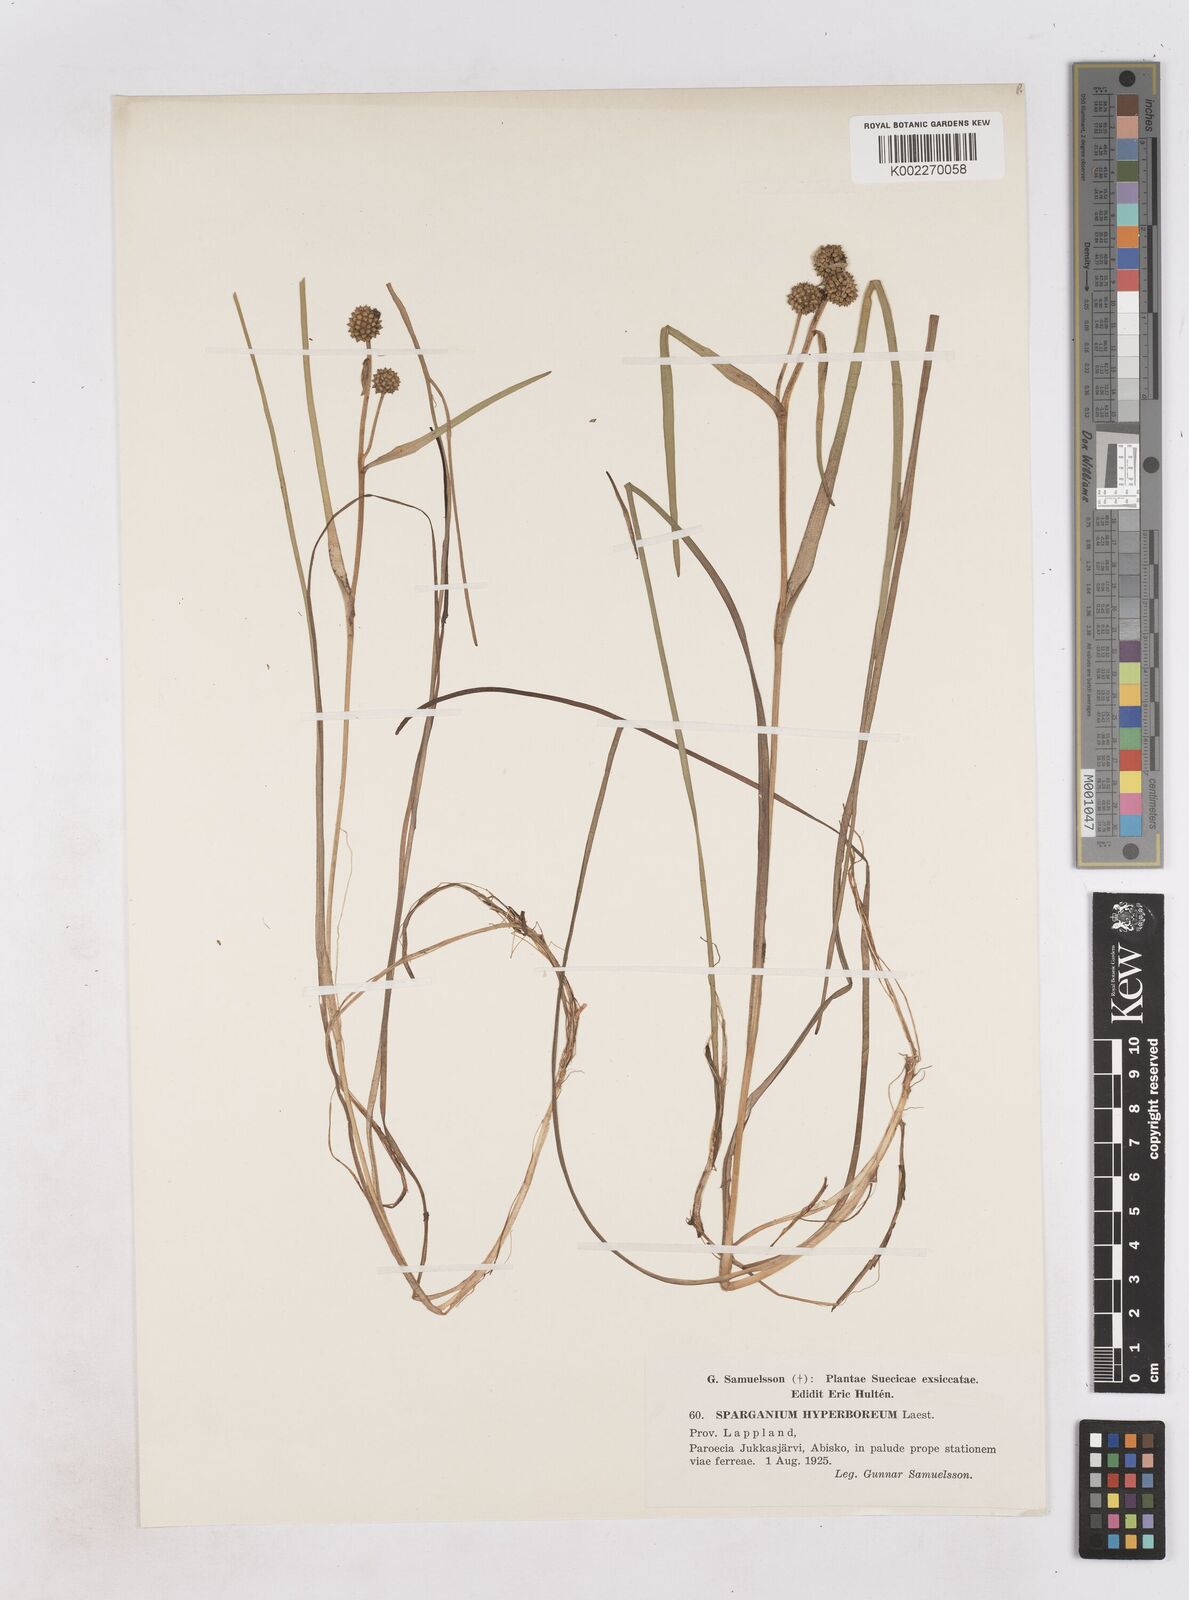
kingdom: Plantae
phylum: Tracheophyta
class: Liliopsida
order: Poales
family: Typhaceae
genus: Sparganium
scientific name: Sparganium hyperboreum
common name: Arctic burreed
